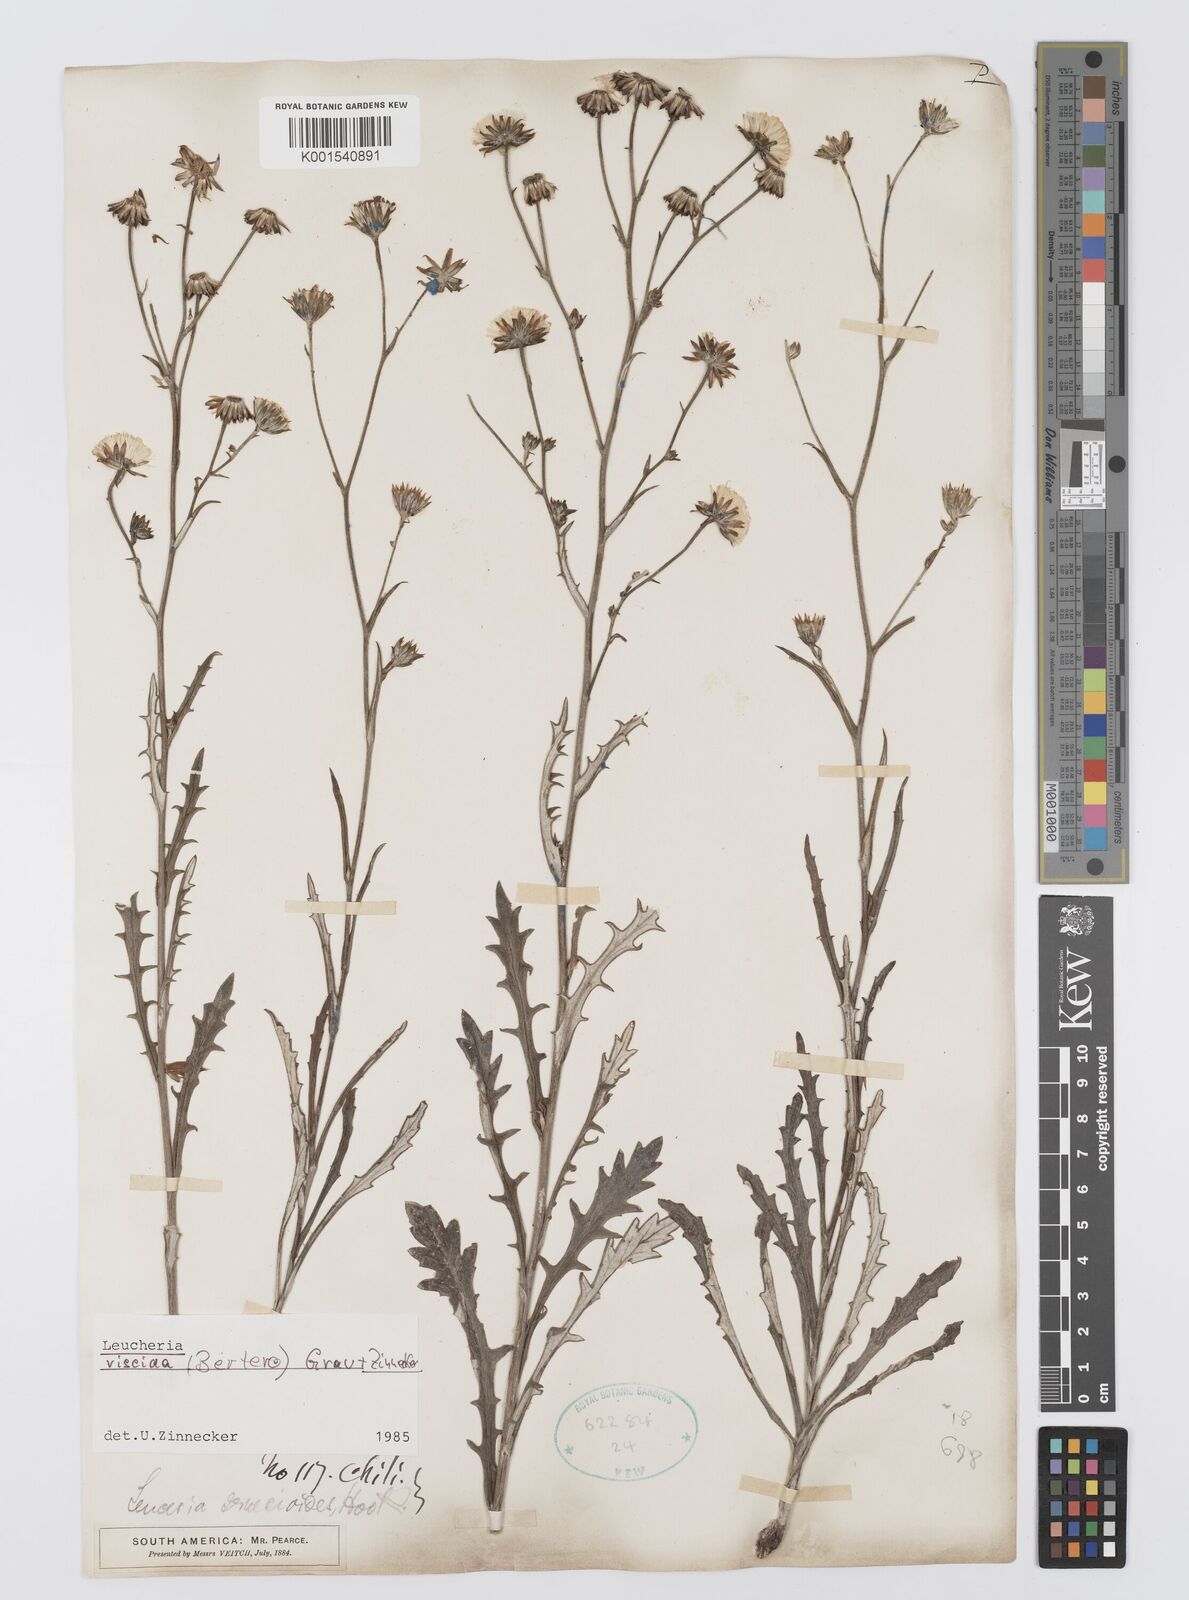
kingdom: Plantae
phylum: Tracheophyta
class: Magnoliopsida
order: Asterales
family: Asteraceae
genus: Leucheria
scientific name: Leucheria viscida
